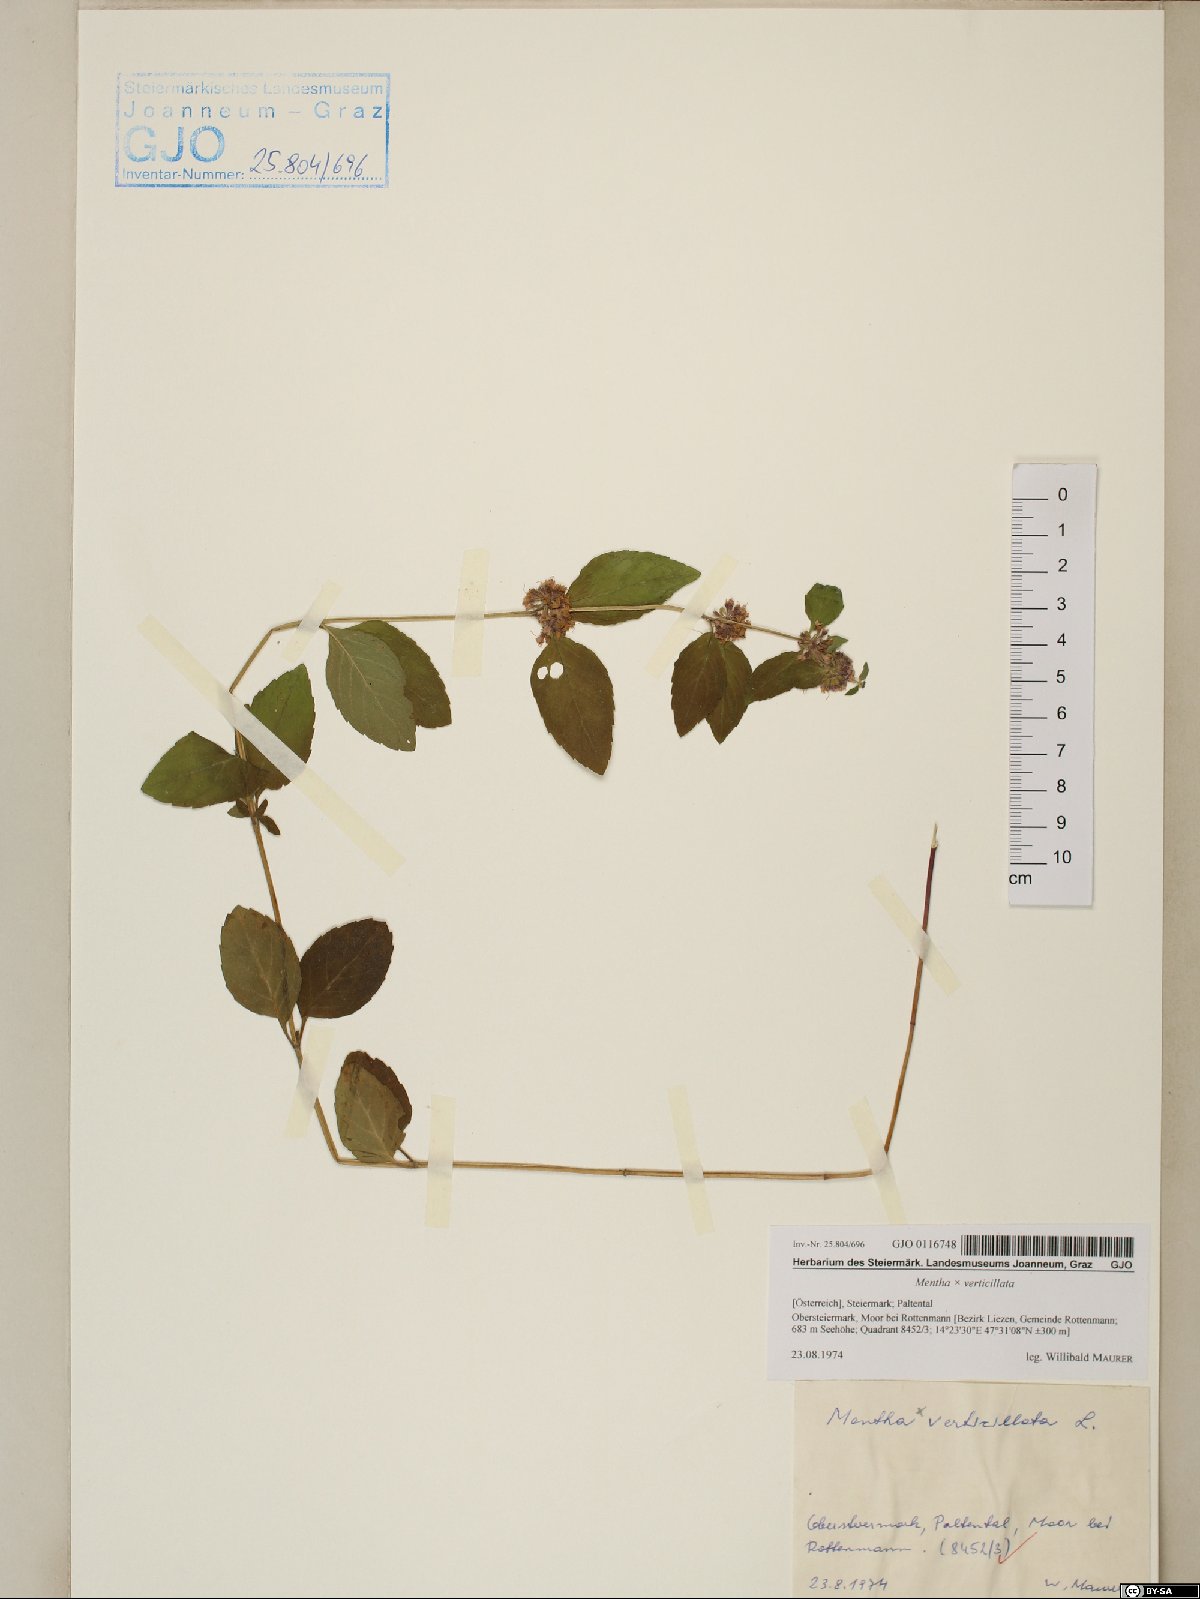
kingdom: Plantae
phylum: Tracheophyta
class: Magnoliopsida
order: Lamiales
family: Lamiaceae
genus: Mentha
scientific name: Mentha verticillata
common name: Mint
